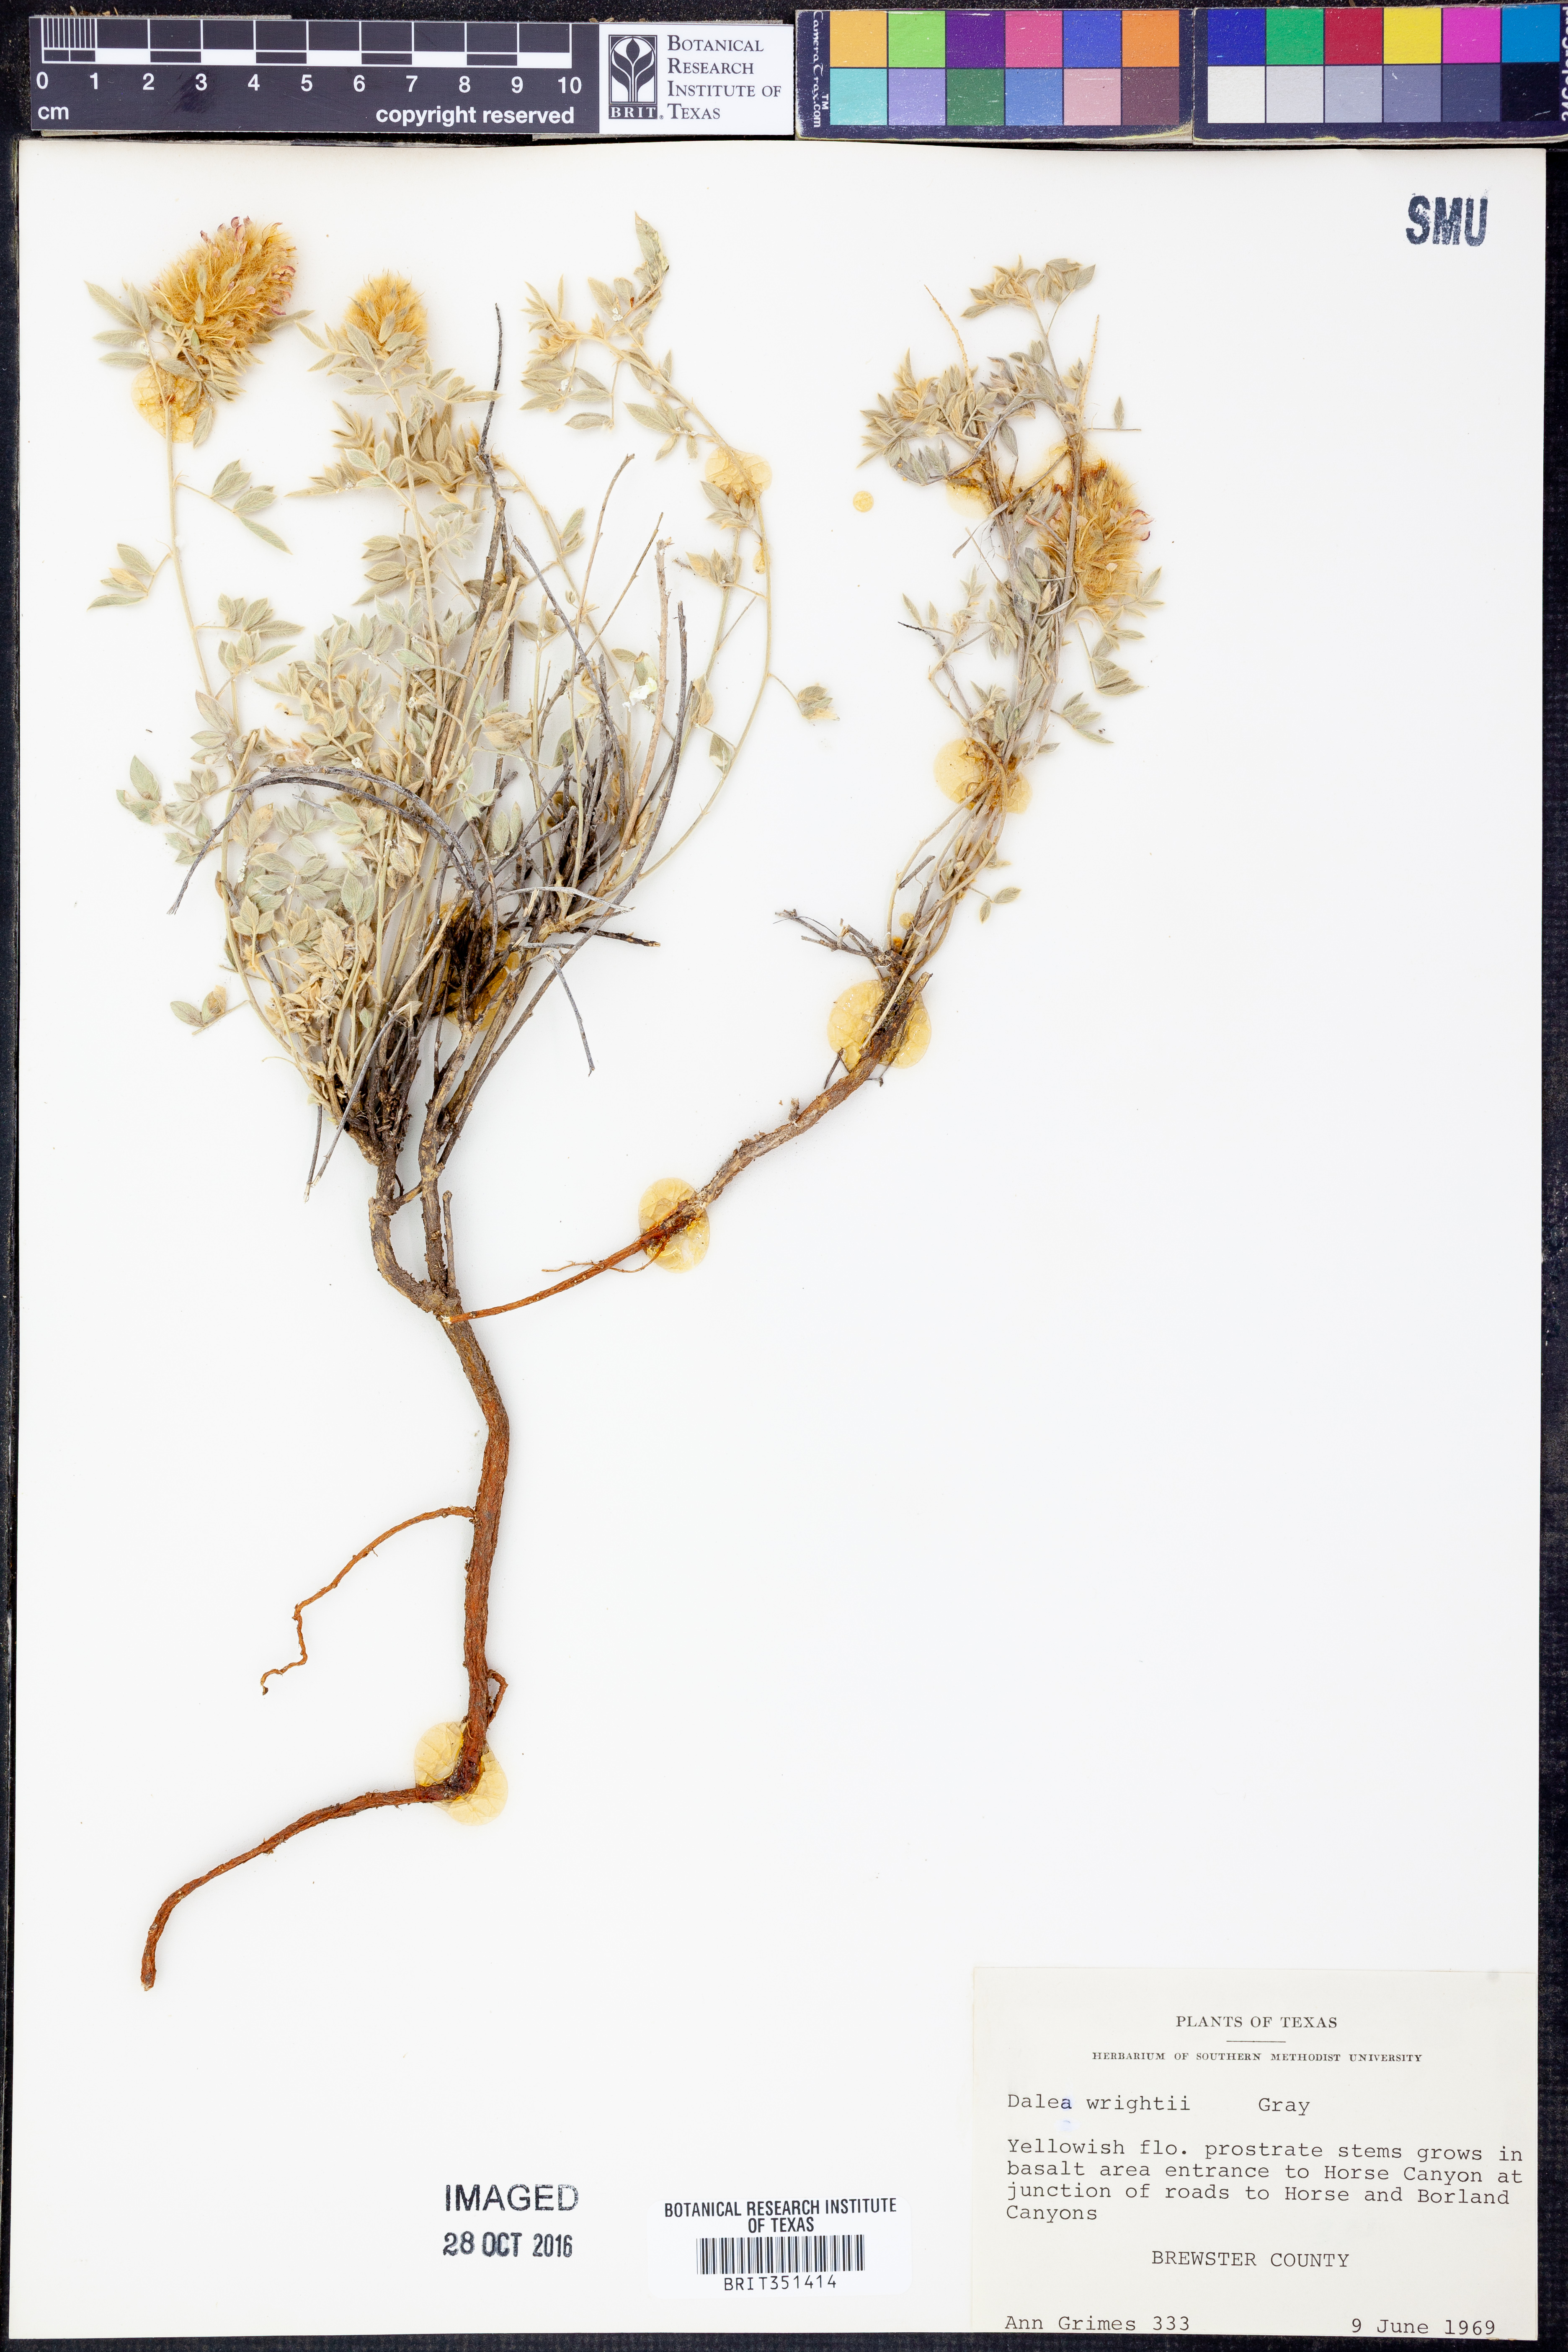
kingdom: Plantae
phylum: Tracheophyta
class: Magnoliopsida
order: Fabales
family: Fabaceae
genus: Dalea
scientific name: Dalea wrightii
